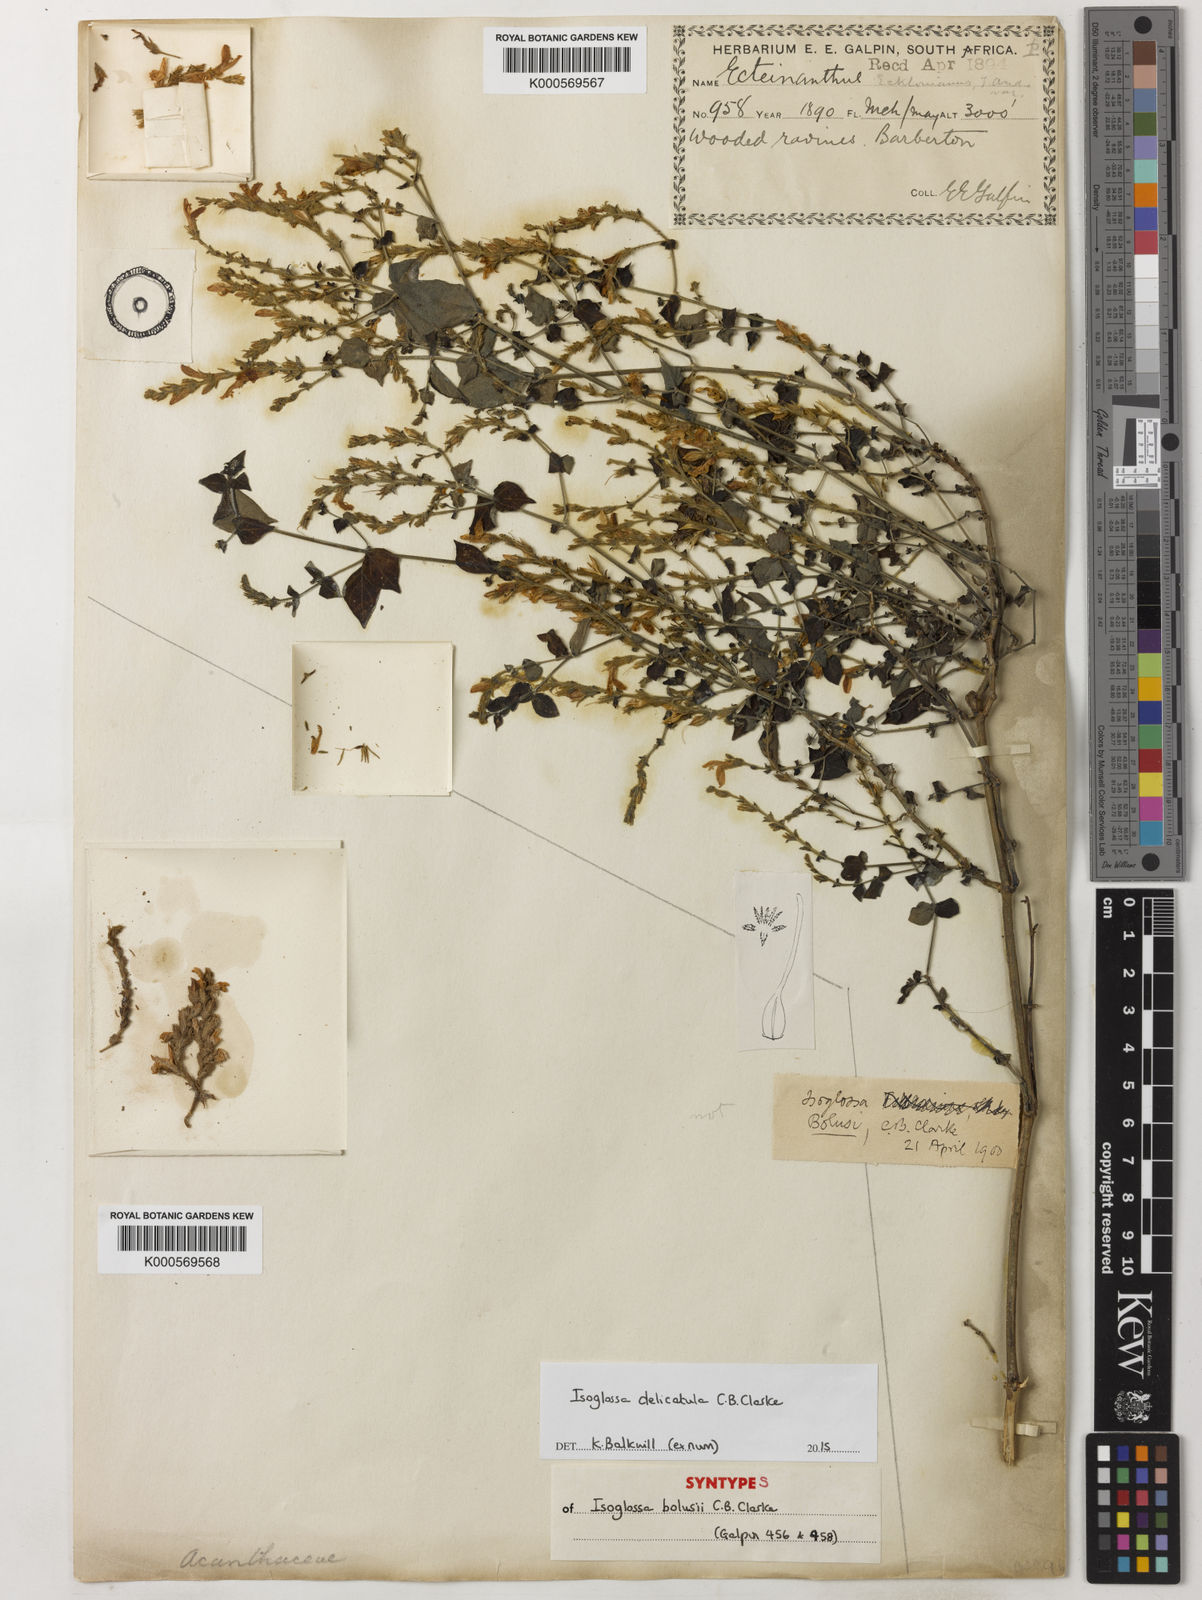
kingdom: Plantae
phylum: Tracheophyta
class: Magnoliopsida
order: Lamiales
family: Acanthaceae
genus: Isoglossa
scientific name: Isoglossa delicatula
